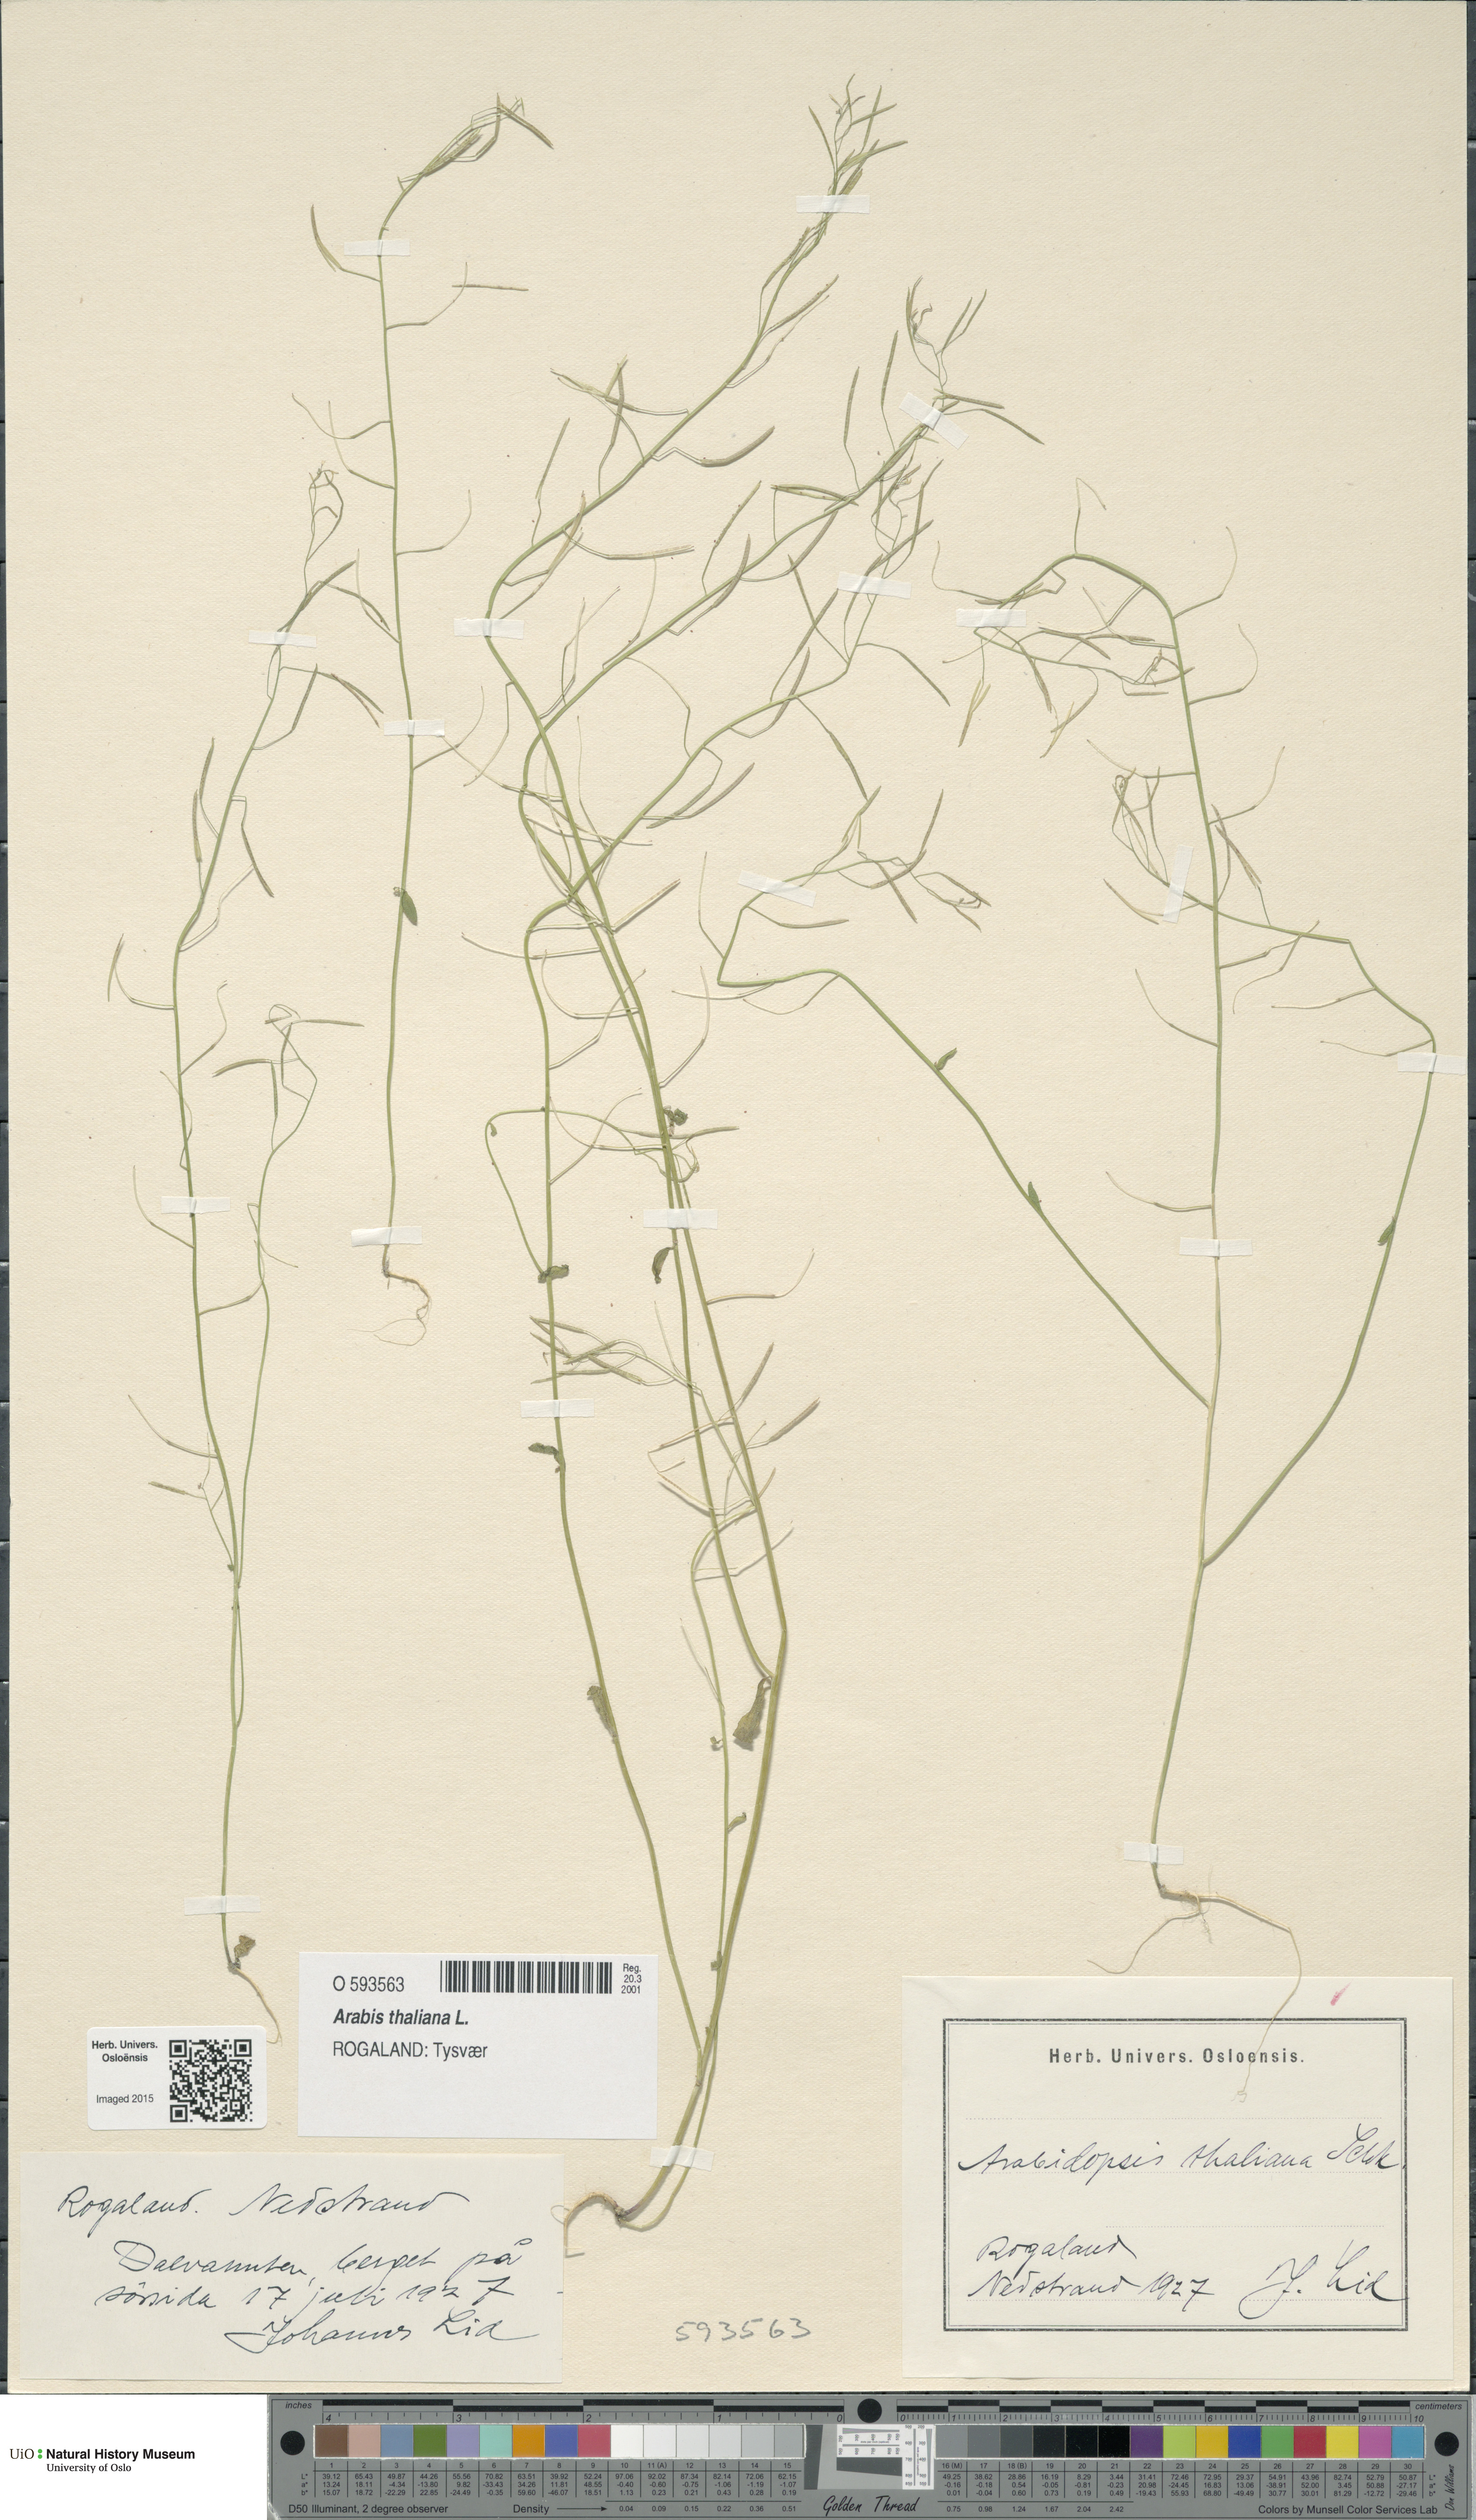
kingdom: Plantae
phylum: Tracheophyta
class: Magnoliopsida
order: Brassicales
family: Brassicaceae
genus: Arabidopsis
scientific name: Arabidopsis thaliana
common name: Thale cress
